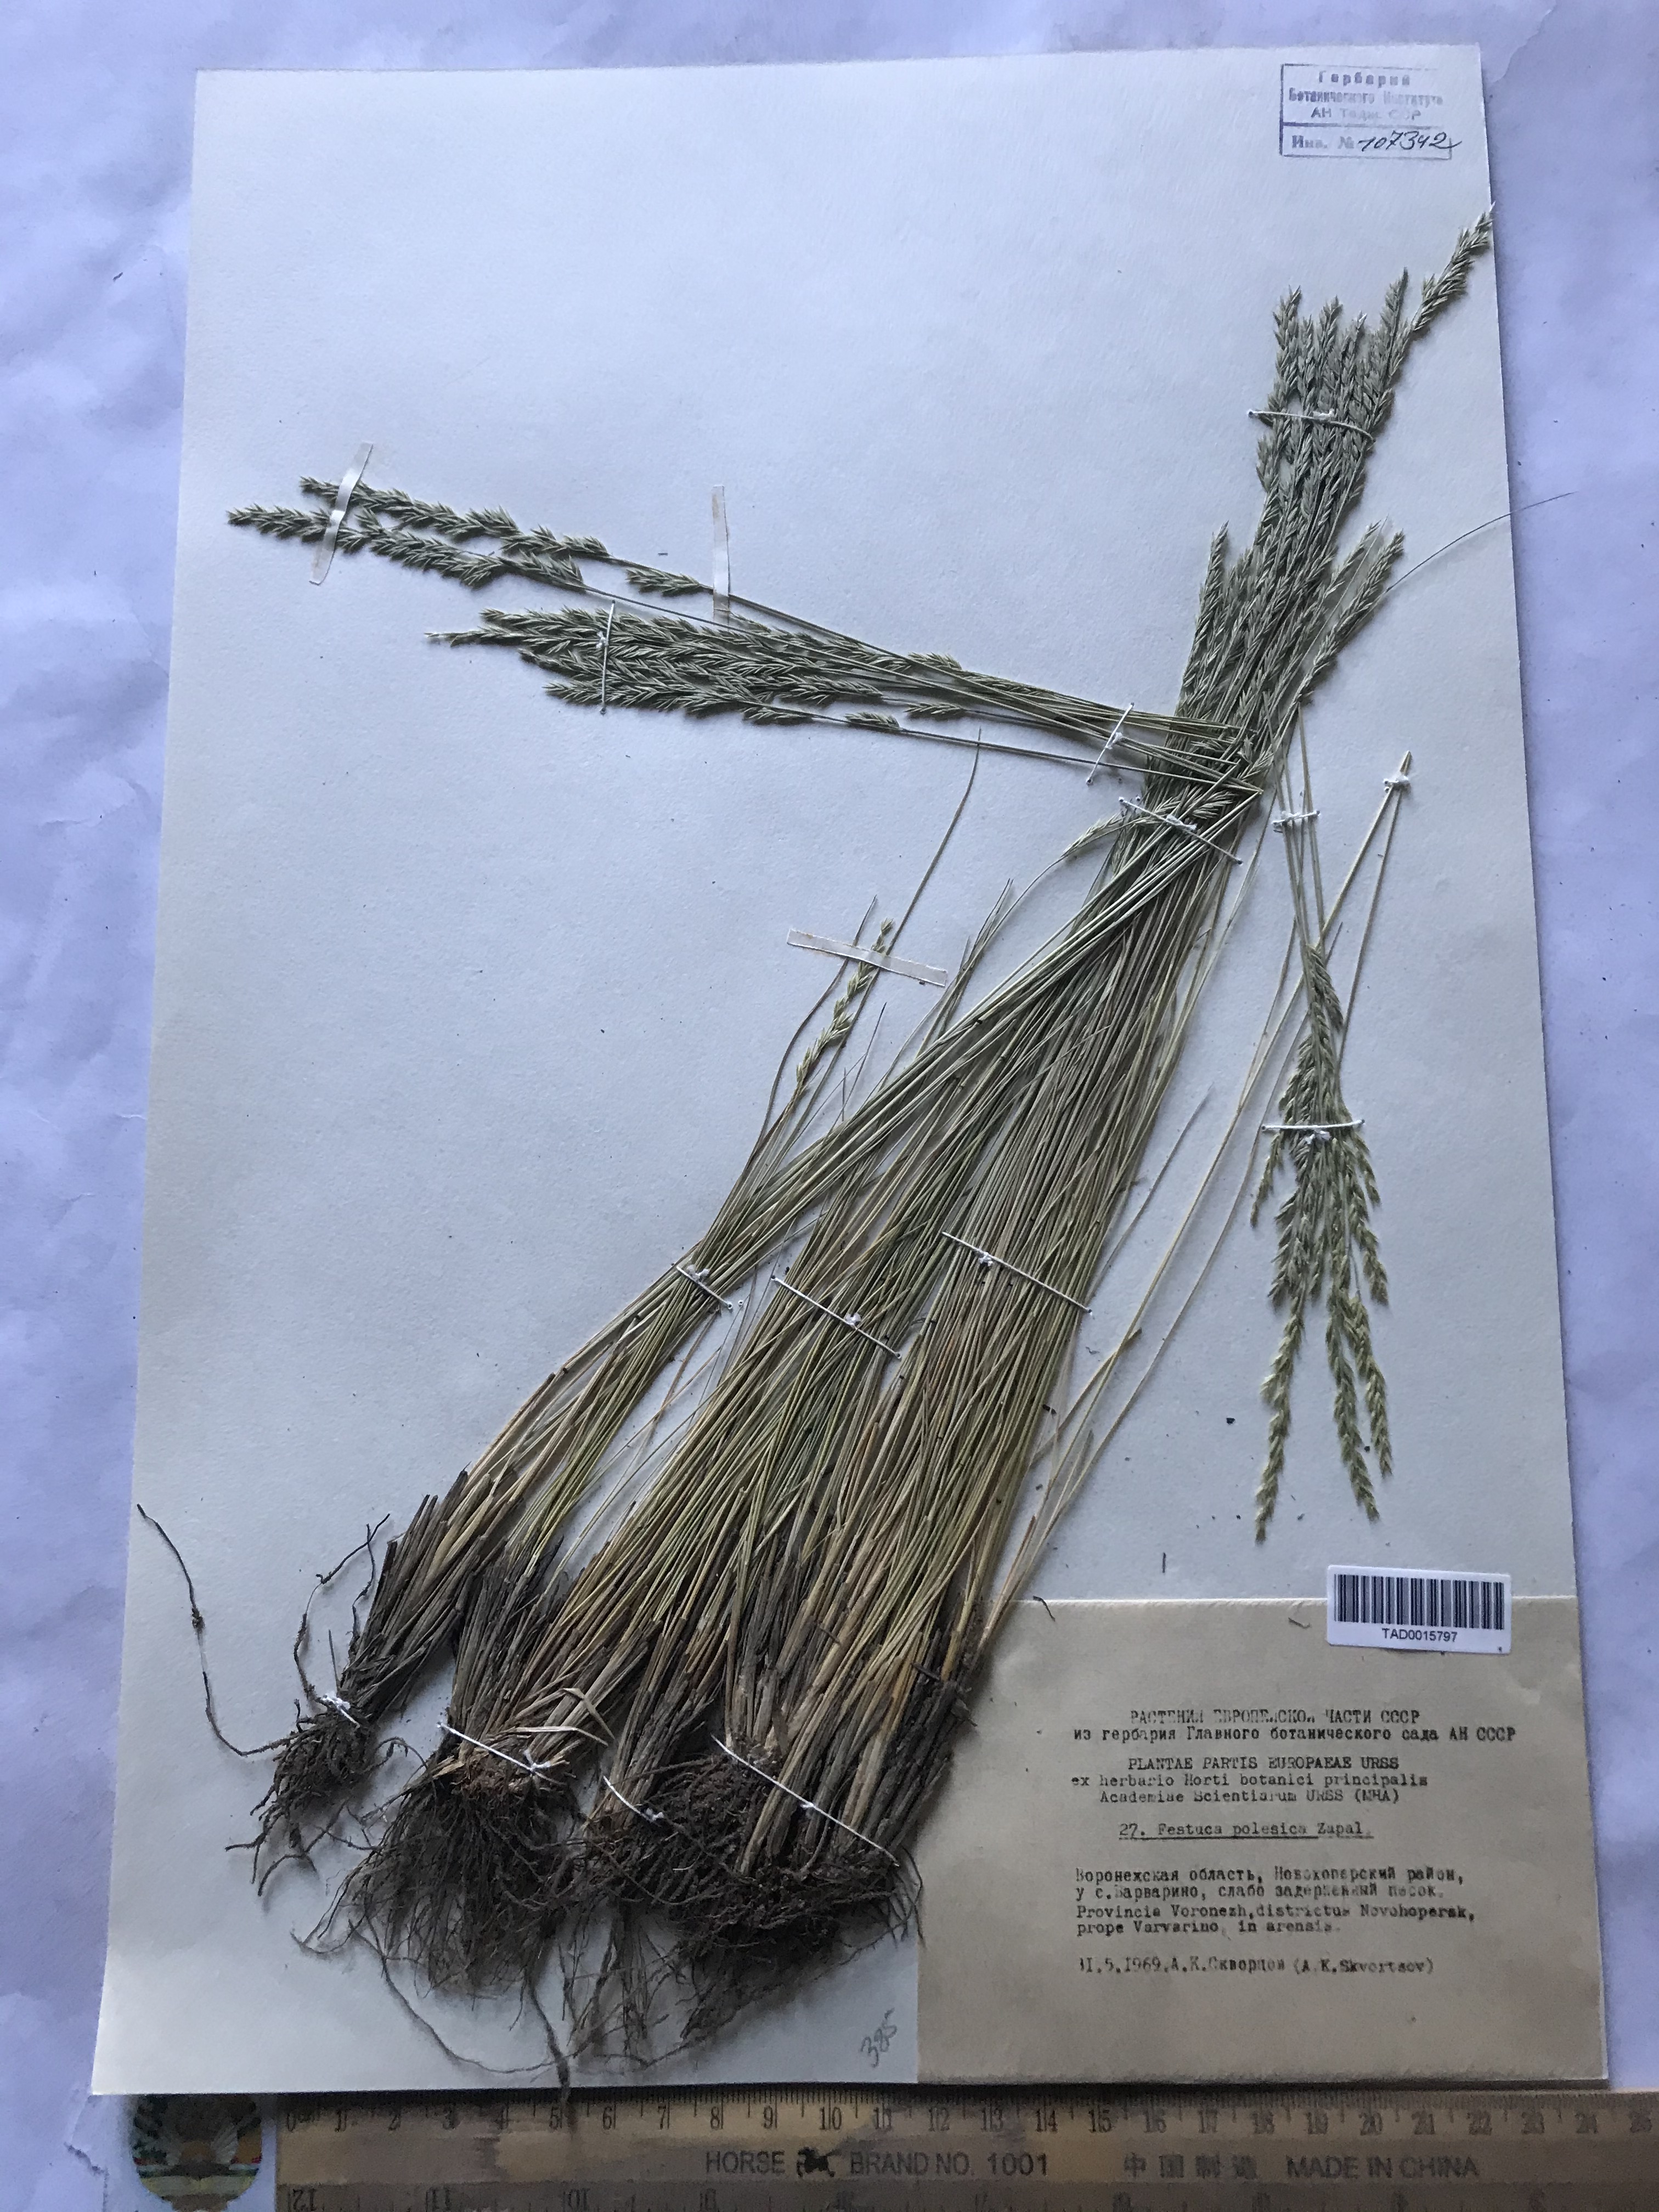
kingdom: Plantae
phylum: Tracheophyta
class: Liliopsida
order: Poales
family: Poaceae
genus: Festuca
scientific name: Festuca beckeri
